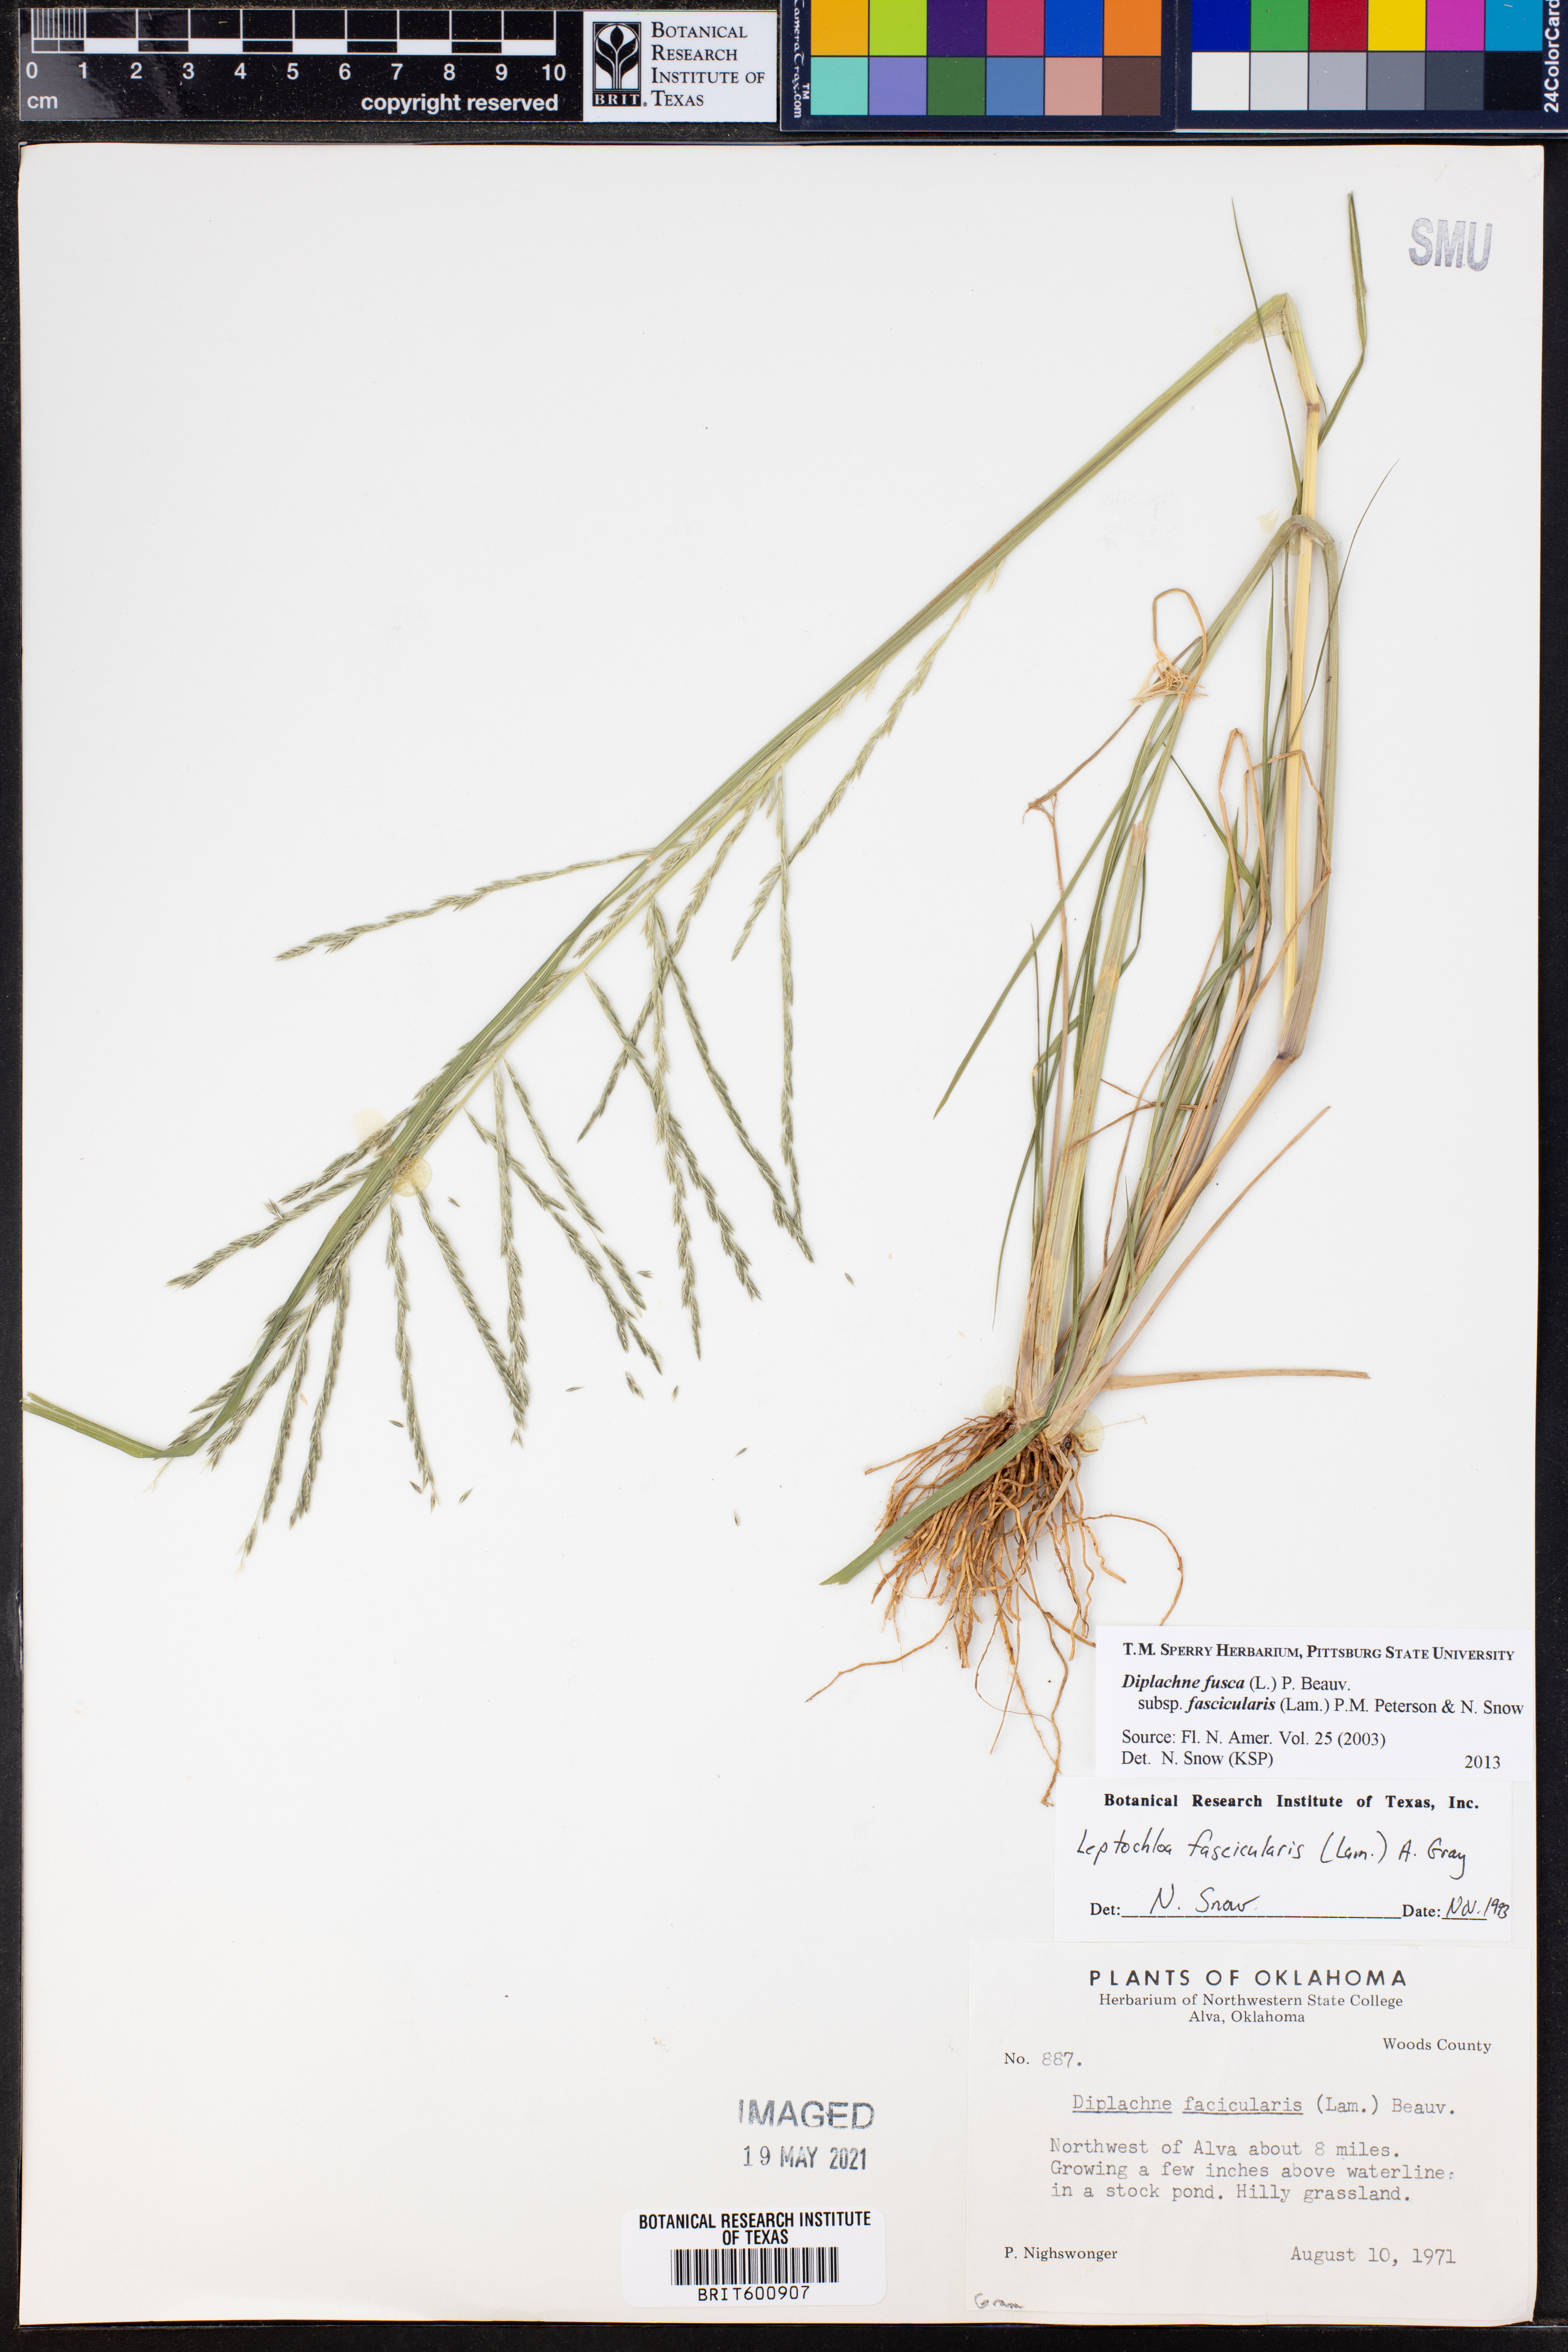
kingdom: Plantae
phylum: Tracheophyta
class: Liliopsida
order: Poales
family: Poaceae
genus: Diplachne
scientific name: Diplachne fusca
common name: Brown beetle grass
